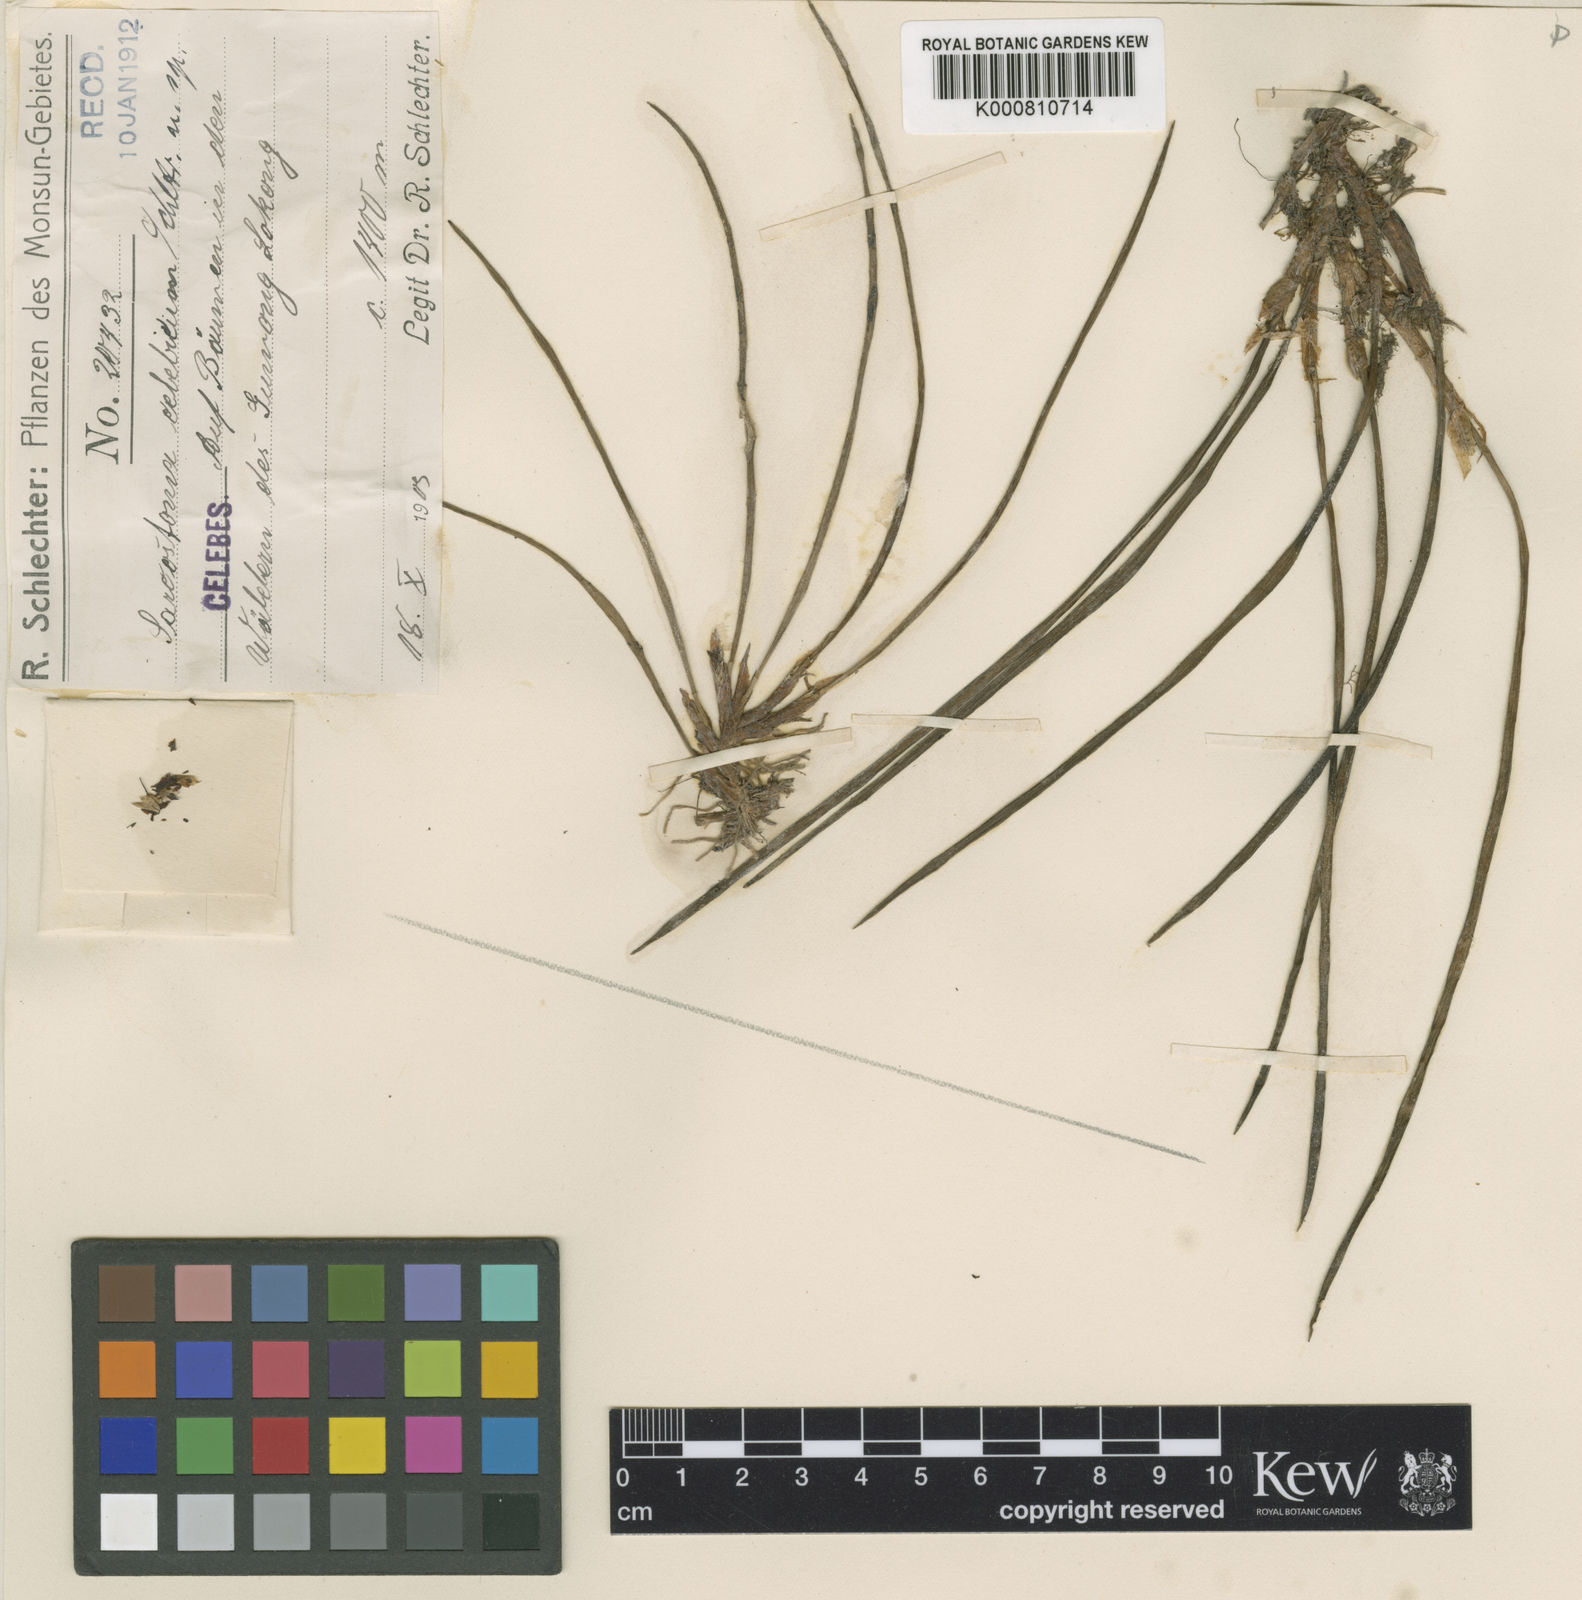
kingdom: Plantae
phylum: Tracheophyta
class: Liliopsida
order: Asparagales
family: Orchidaceae
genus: Ceratostylis
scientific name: Ceratostylis celebica
